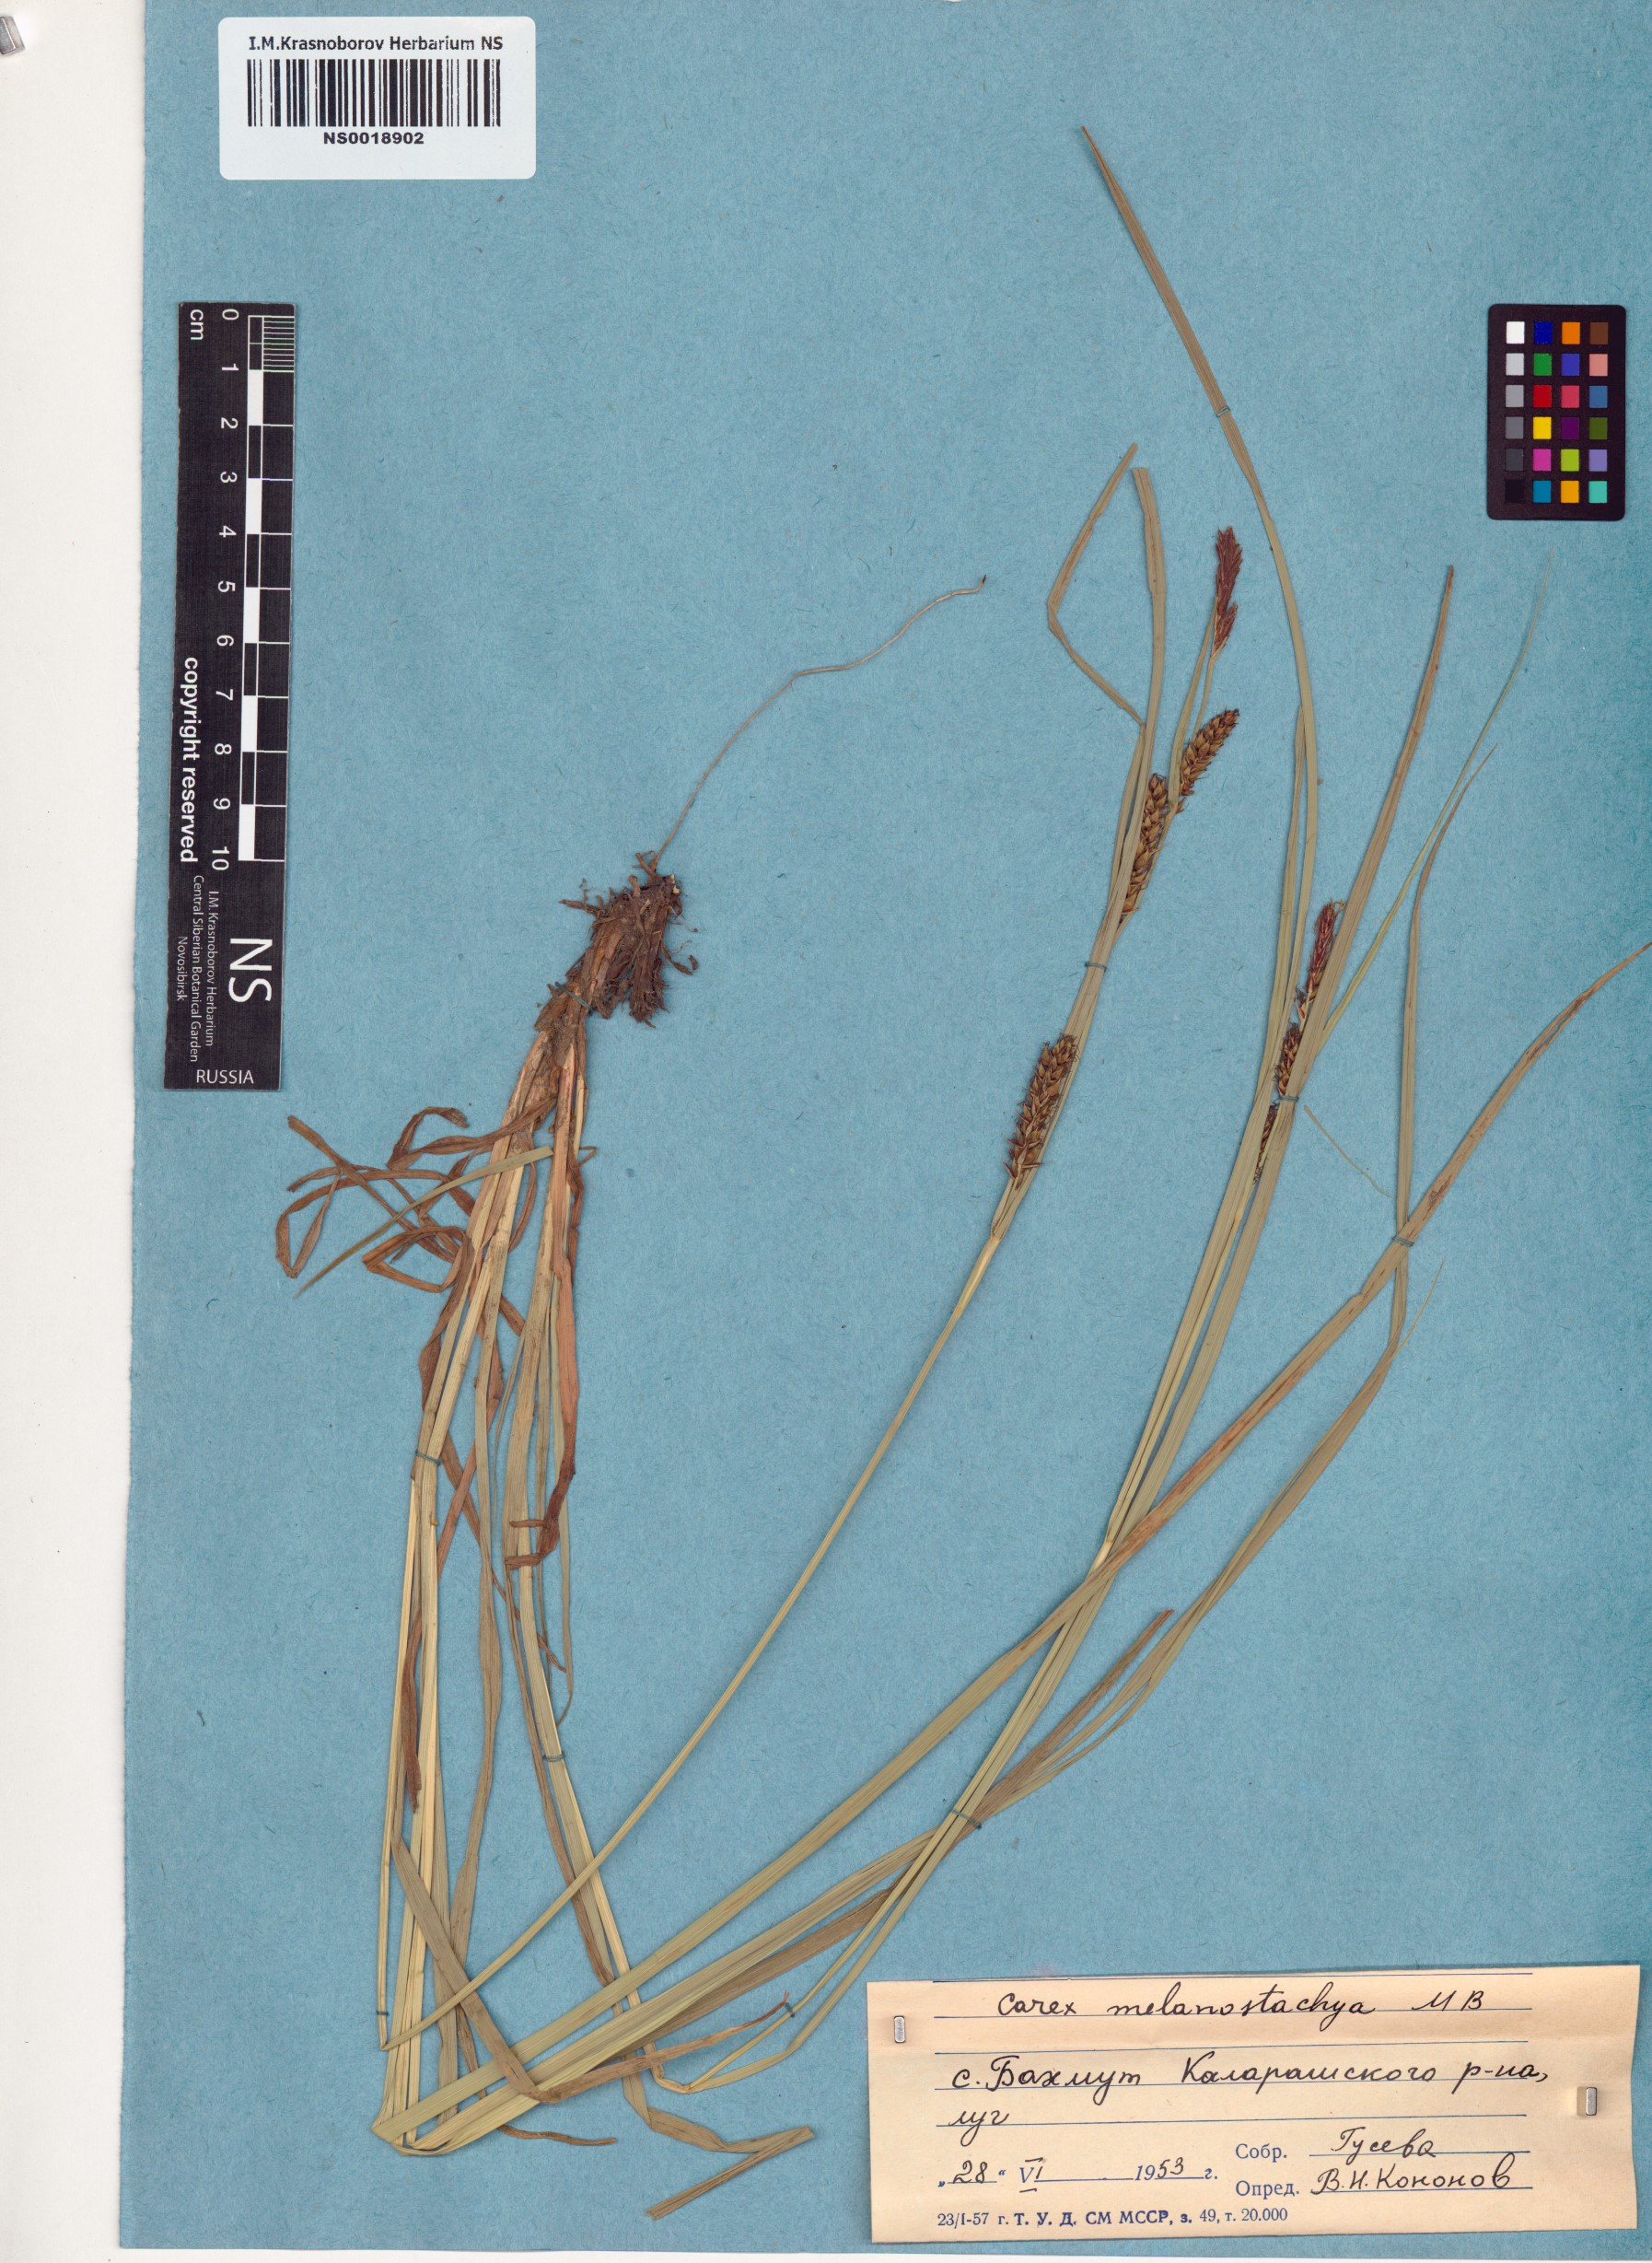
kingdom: Plantae
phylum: Tracheophyta
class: Liliopsida
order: Poales
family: Cyperaceae
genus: Carex
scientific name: Carex melanostachya
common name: Black-spiked sedge
